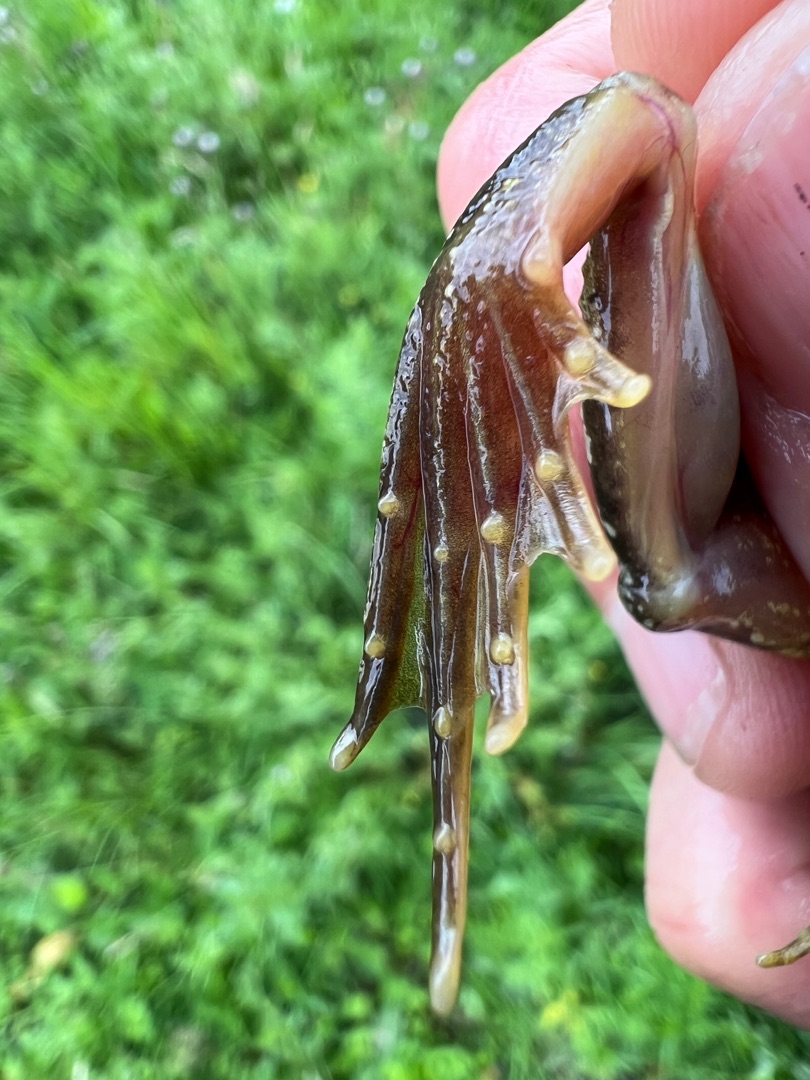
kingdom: Animalia
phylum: Chordata
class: Amphibia
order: Anura
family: Ranidae
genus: Rana
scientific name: Rana temporaria
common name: Butsnudet frø
